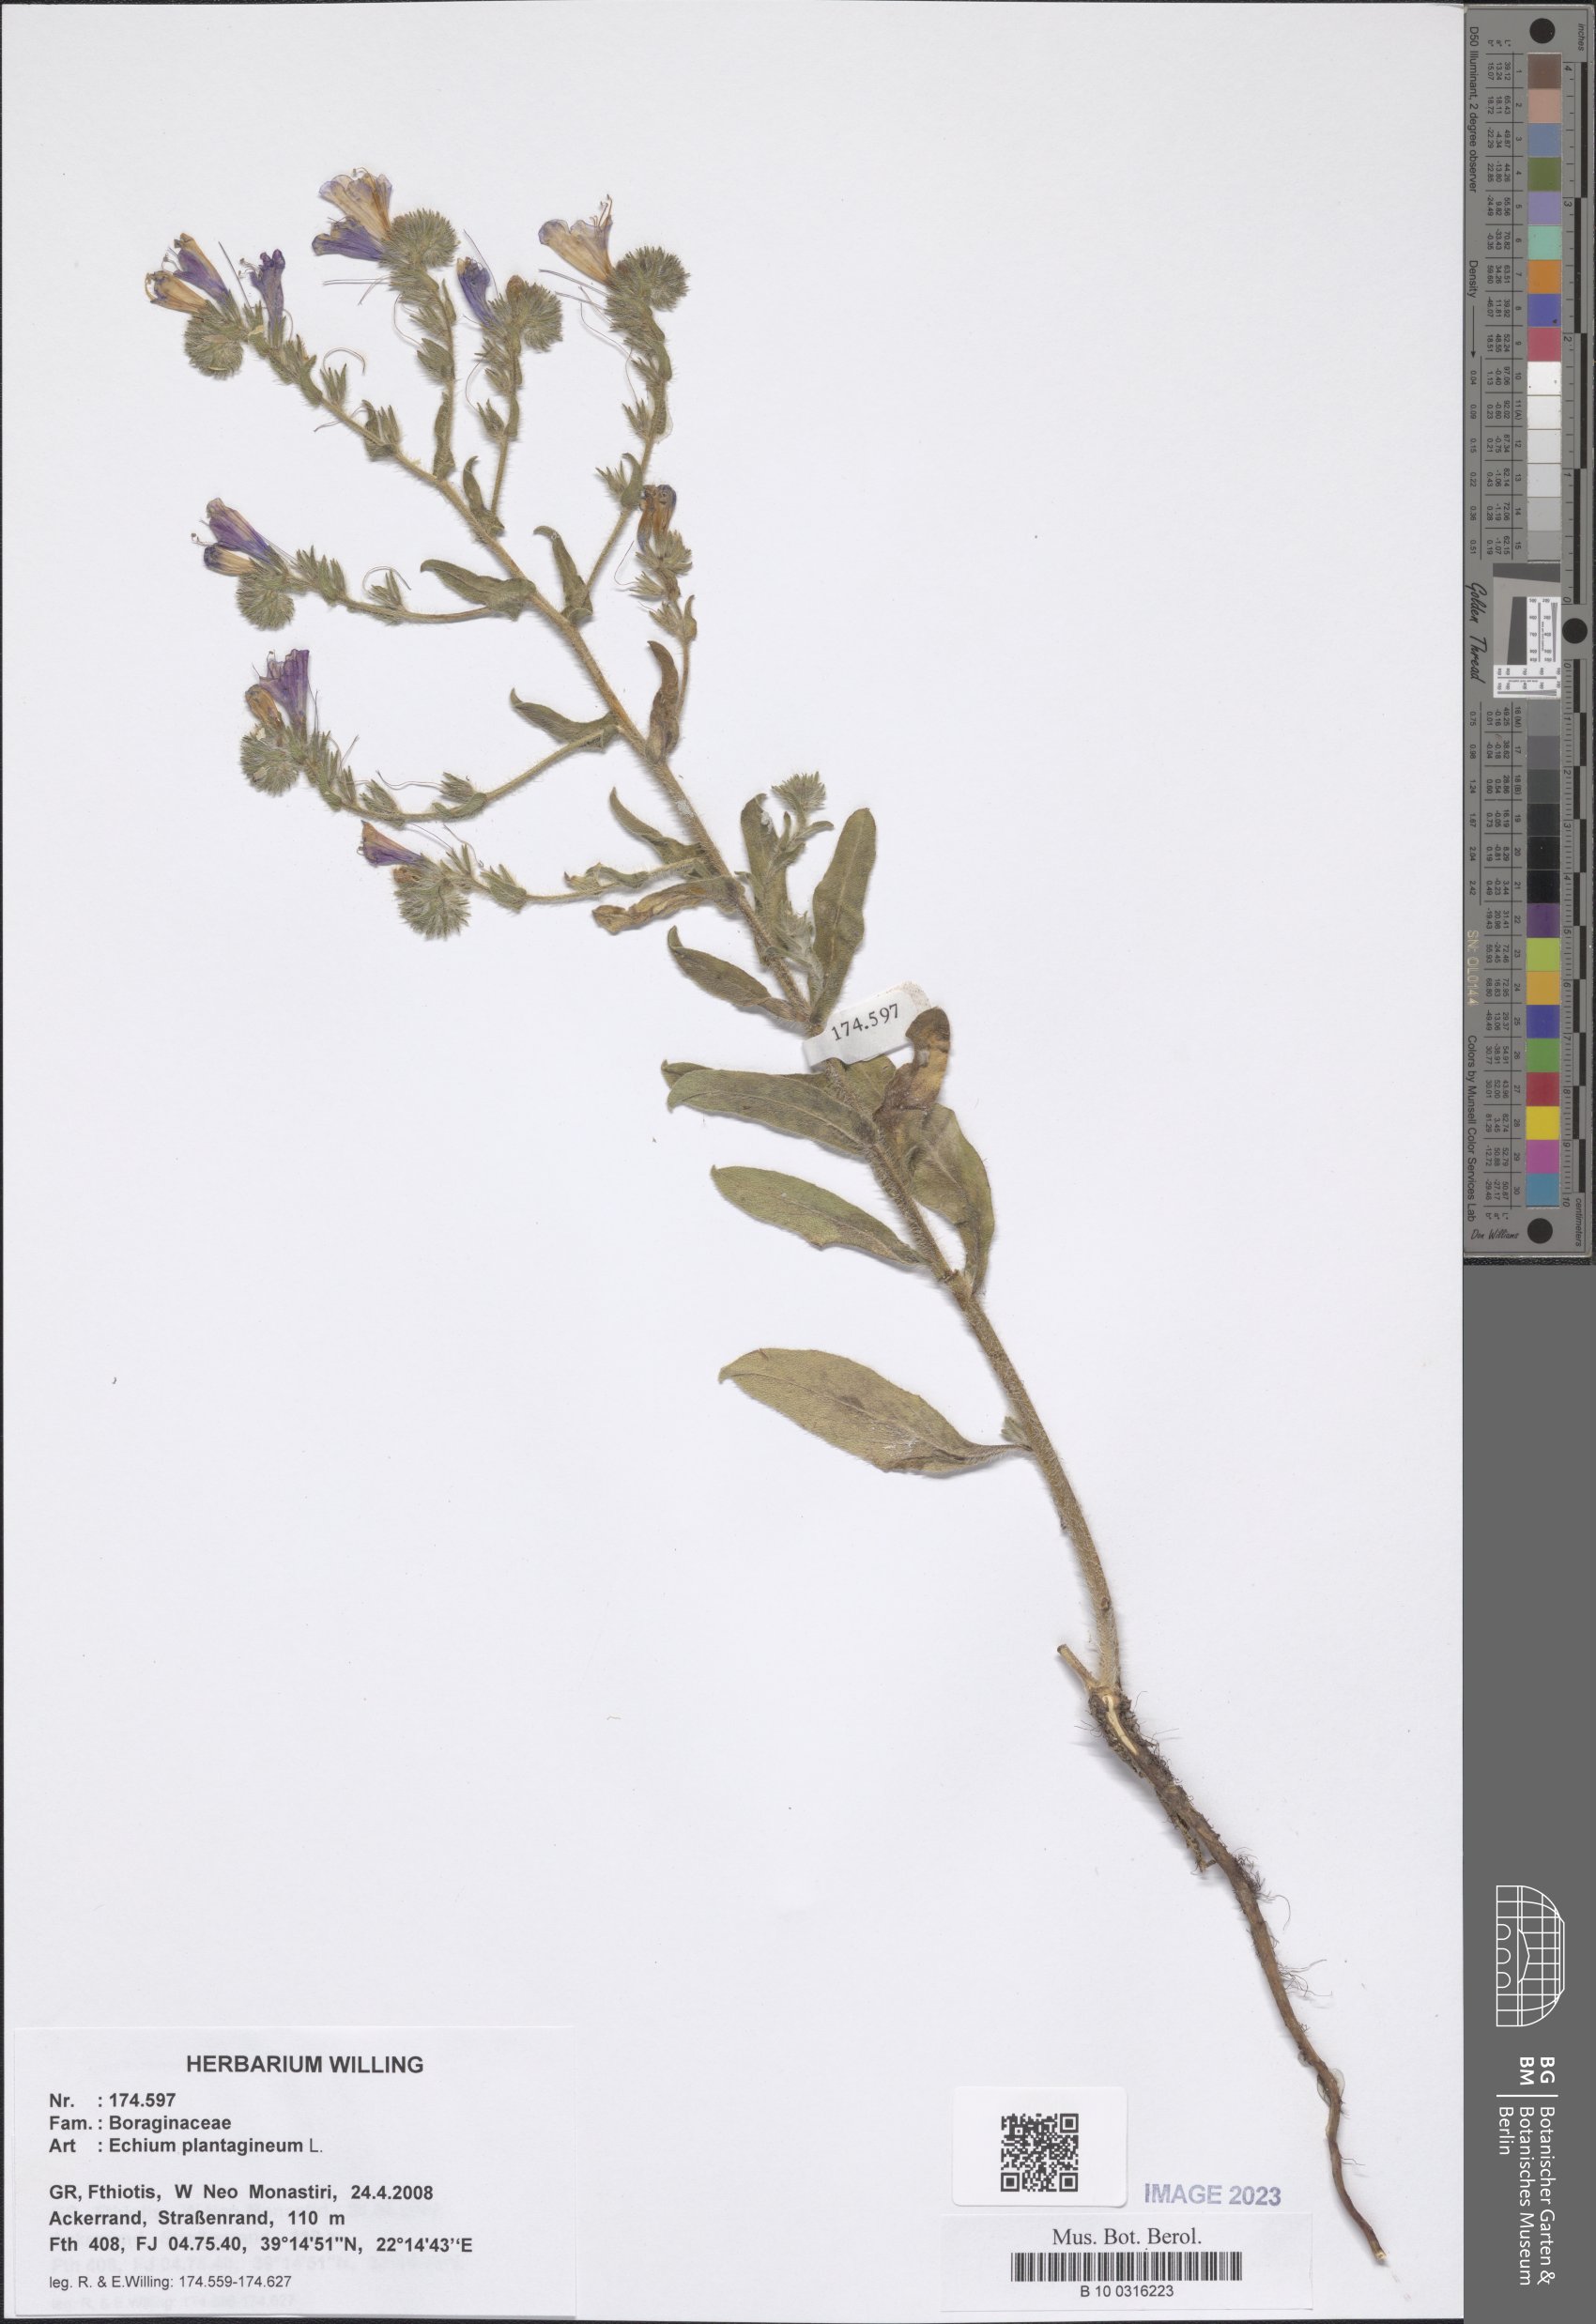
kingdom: Plantae
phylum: Tracheophyta
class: Magnoliopsida
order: Boraginales
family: Boraginaceae
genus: Echium
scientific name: Echium plantagineum
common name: Purple viper's-bugloss
